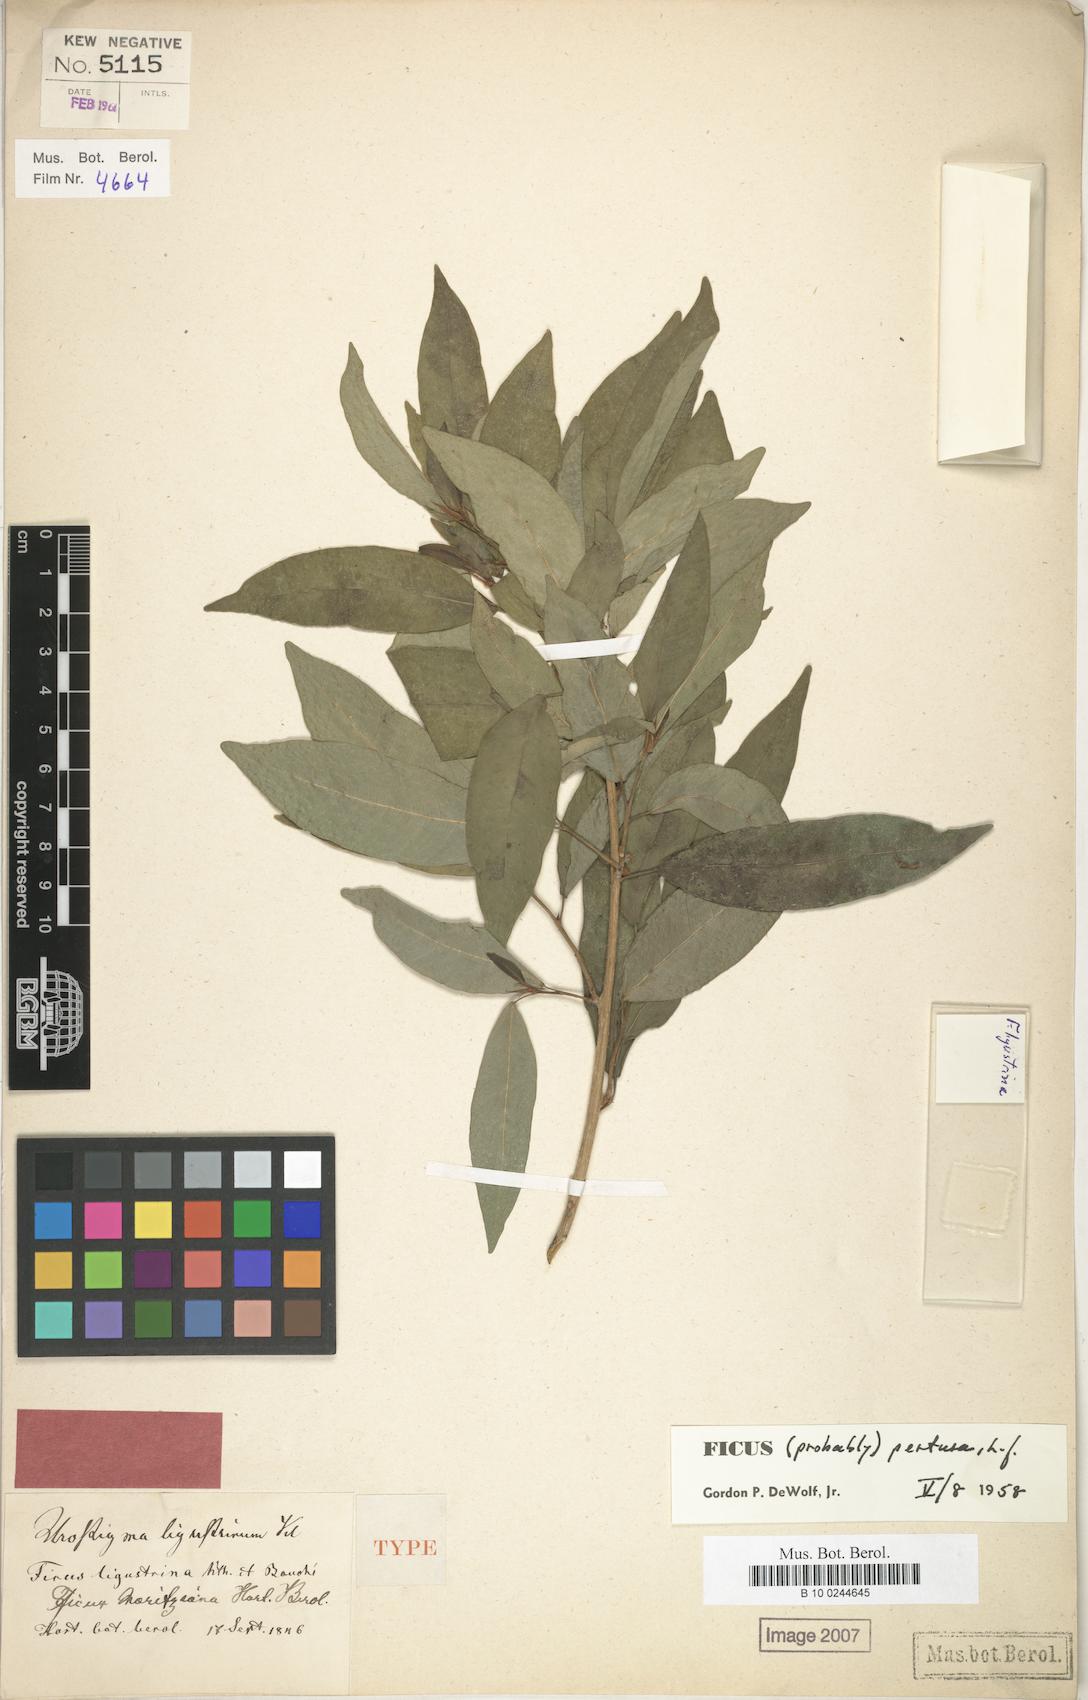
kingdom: Plantae
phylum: Tracheophyta
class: Magnoliopsida
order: Rosales
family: Moraceae
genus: Ficus
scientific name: Ficus pallida
